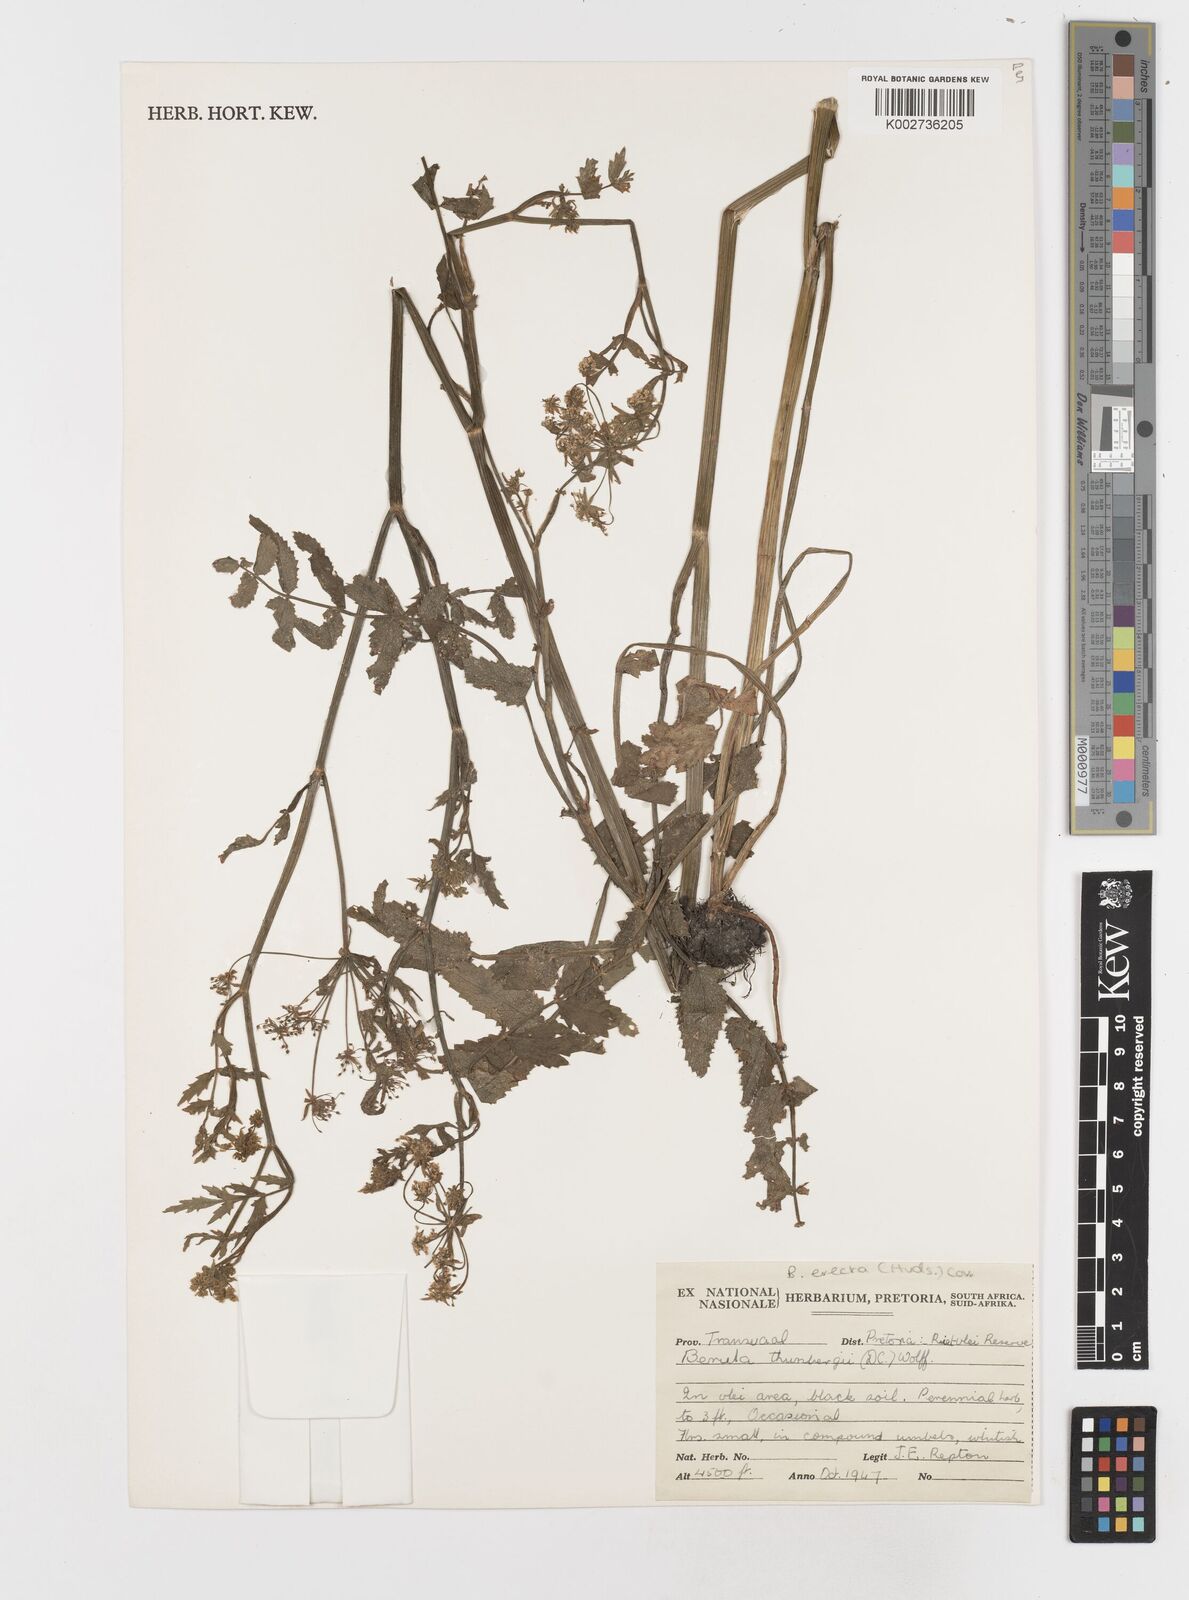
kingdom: Plantae
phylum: Tracheophyta
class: Magnoliopsida
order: Apiales
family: Apiaceae
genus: Berula
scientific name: Berula erecta
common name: Lesser water-parsnip
